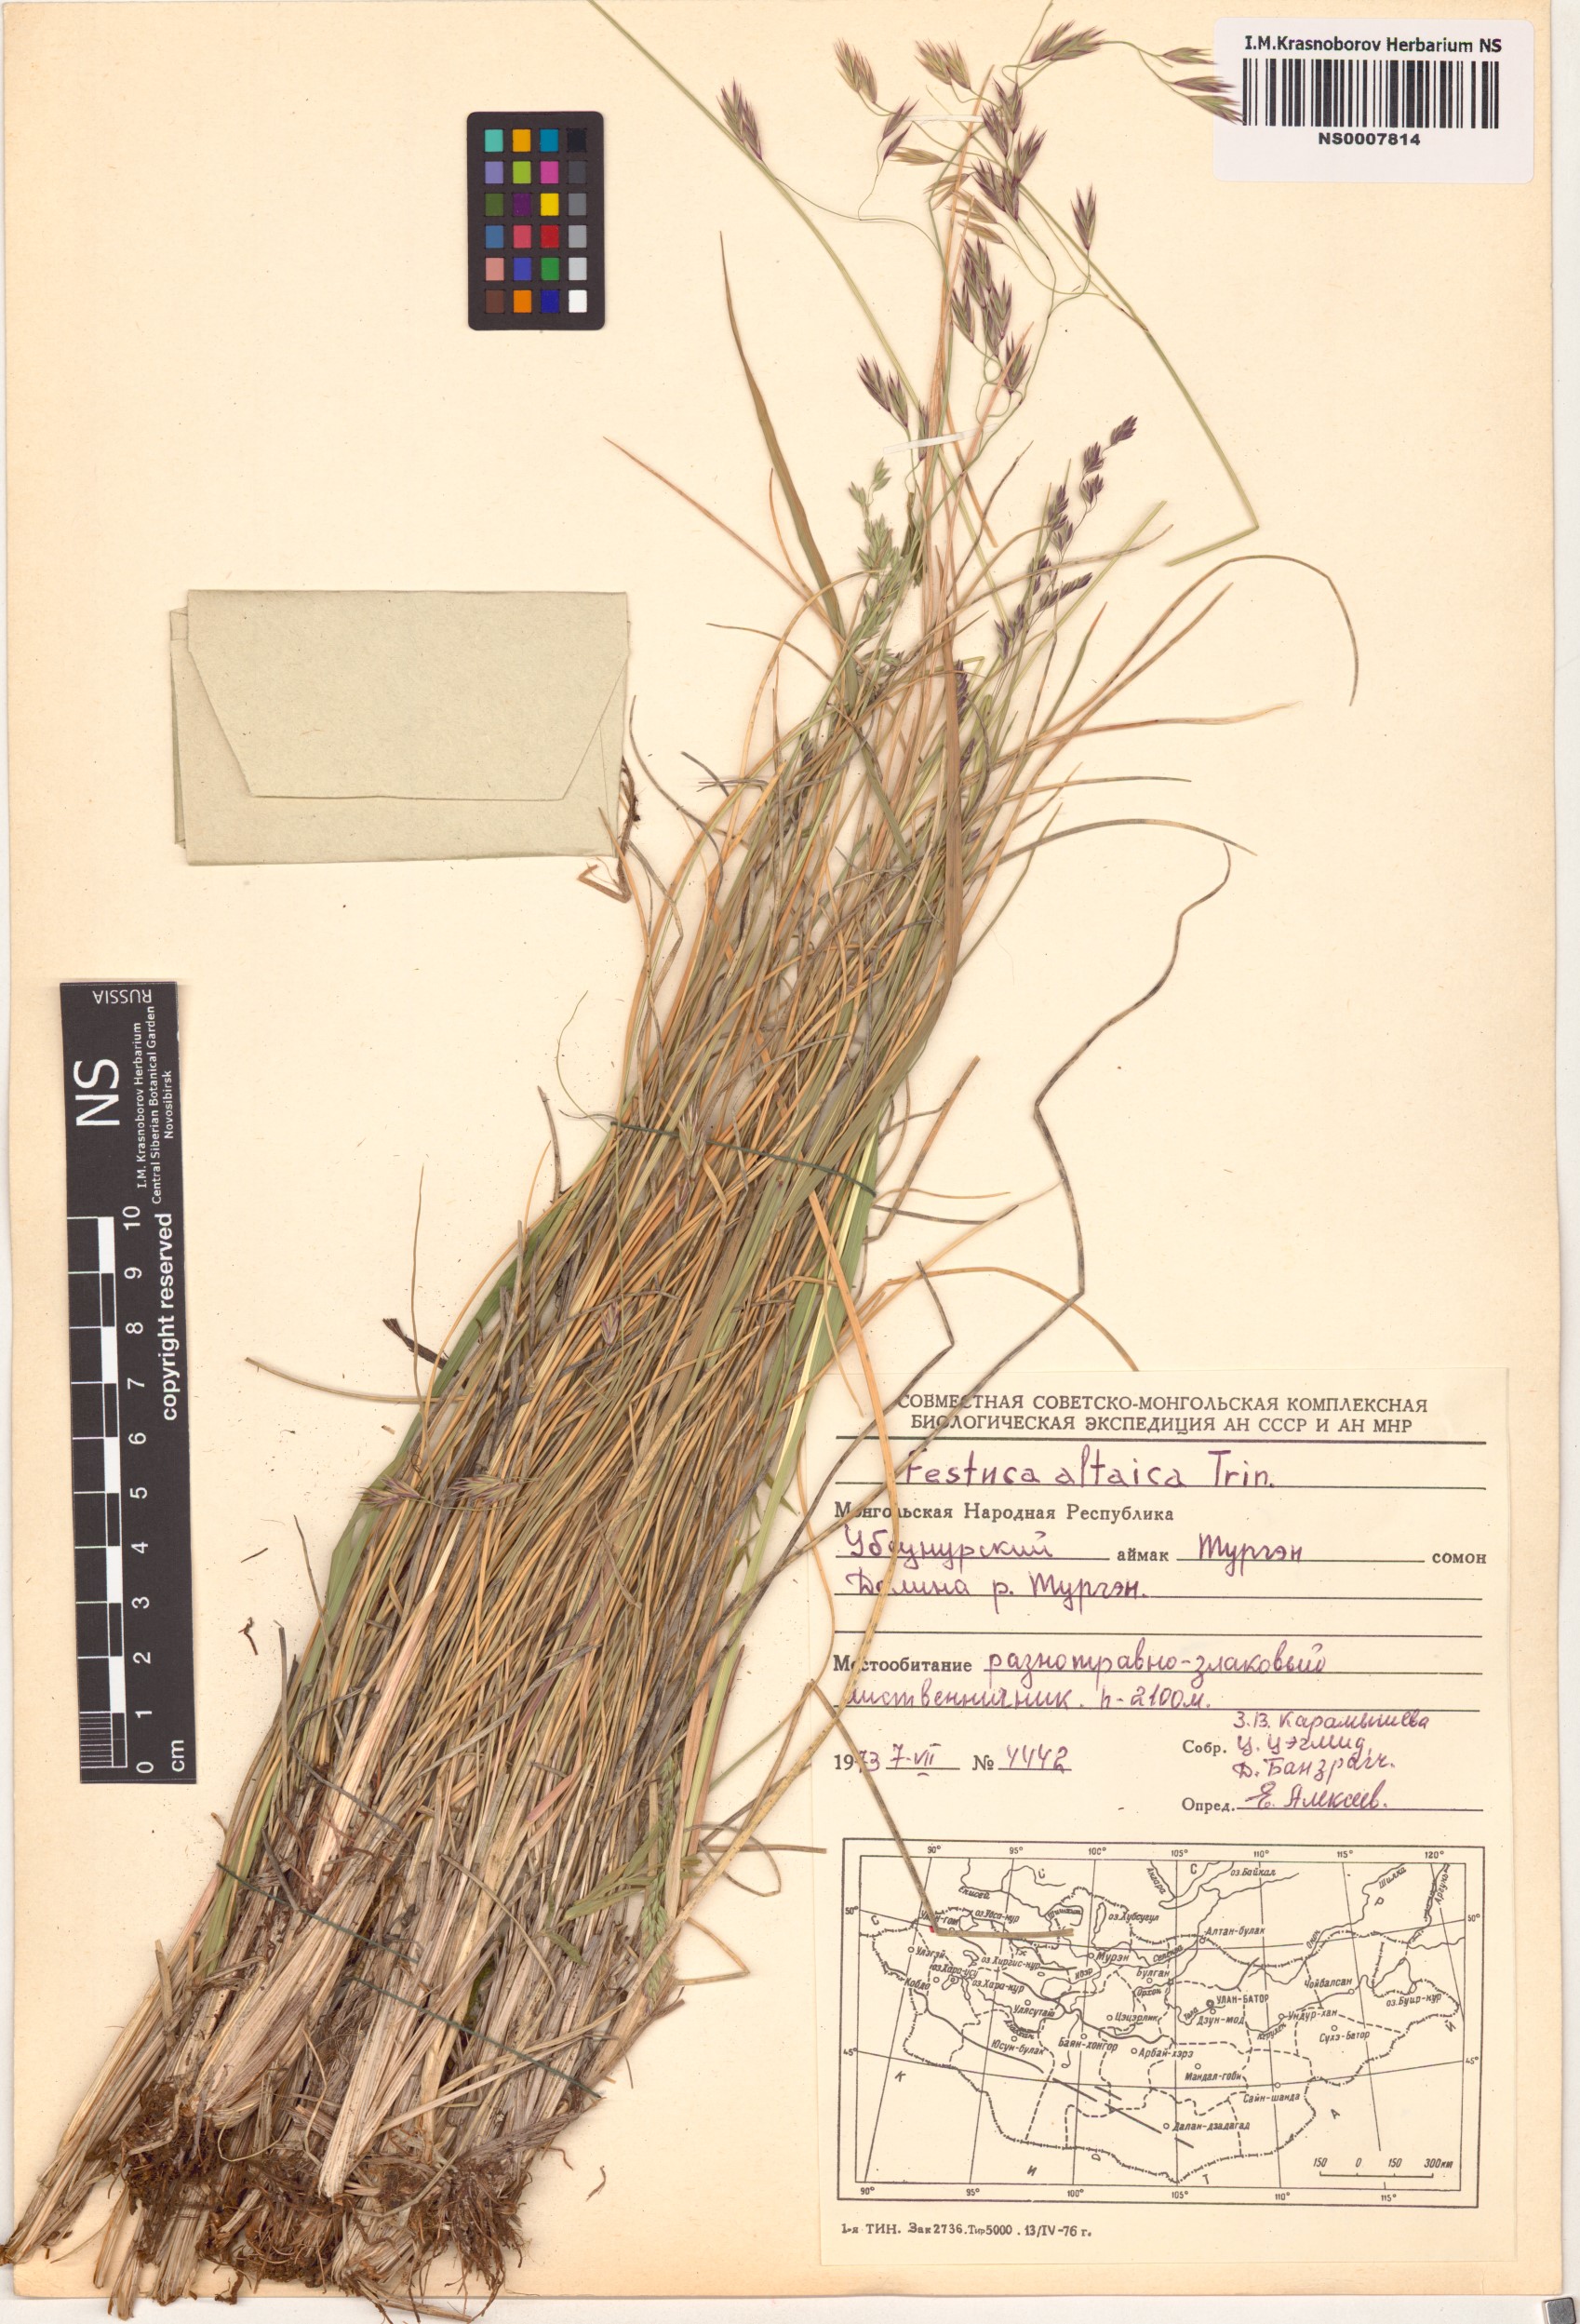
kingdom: Plantae
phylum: Tracheophyta
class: Liliopsida
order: Poales
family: Poaceae
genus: Festuca
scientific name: Festuca altaica
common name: Northern rough fescue
